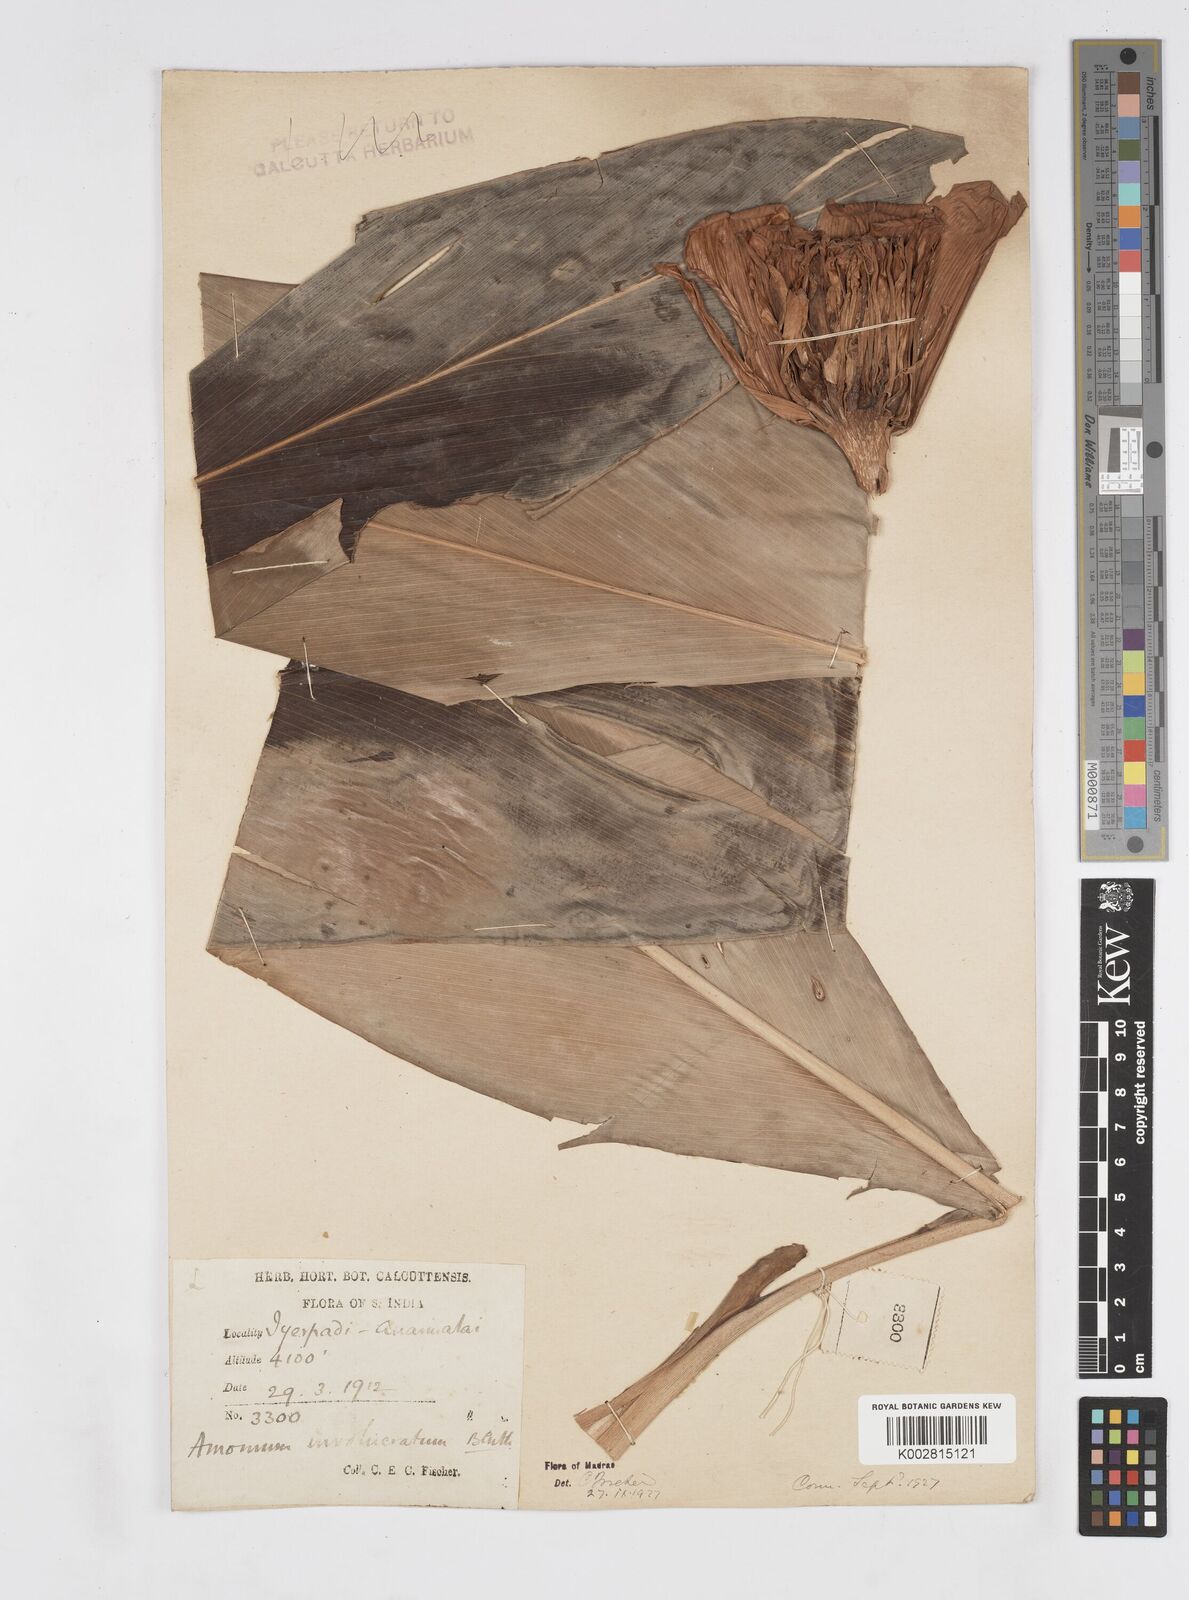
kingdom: Plantae
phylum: Tracheophyta
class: Liliopsida
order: Zingiberales
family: Zingiberaceae
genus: Alpinia
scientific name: Alpinia abundiflora
